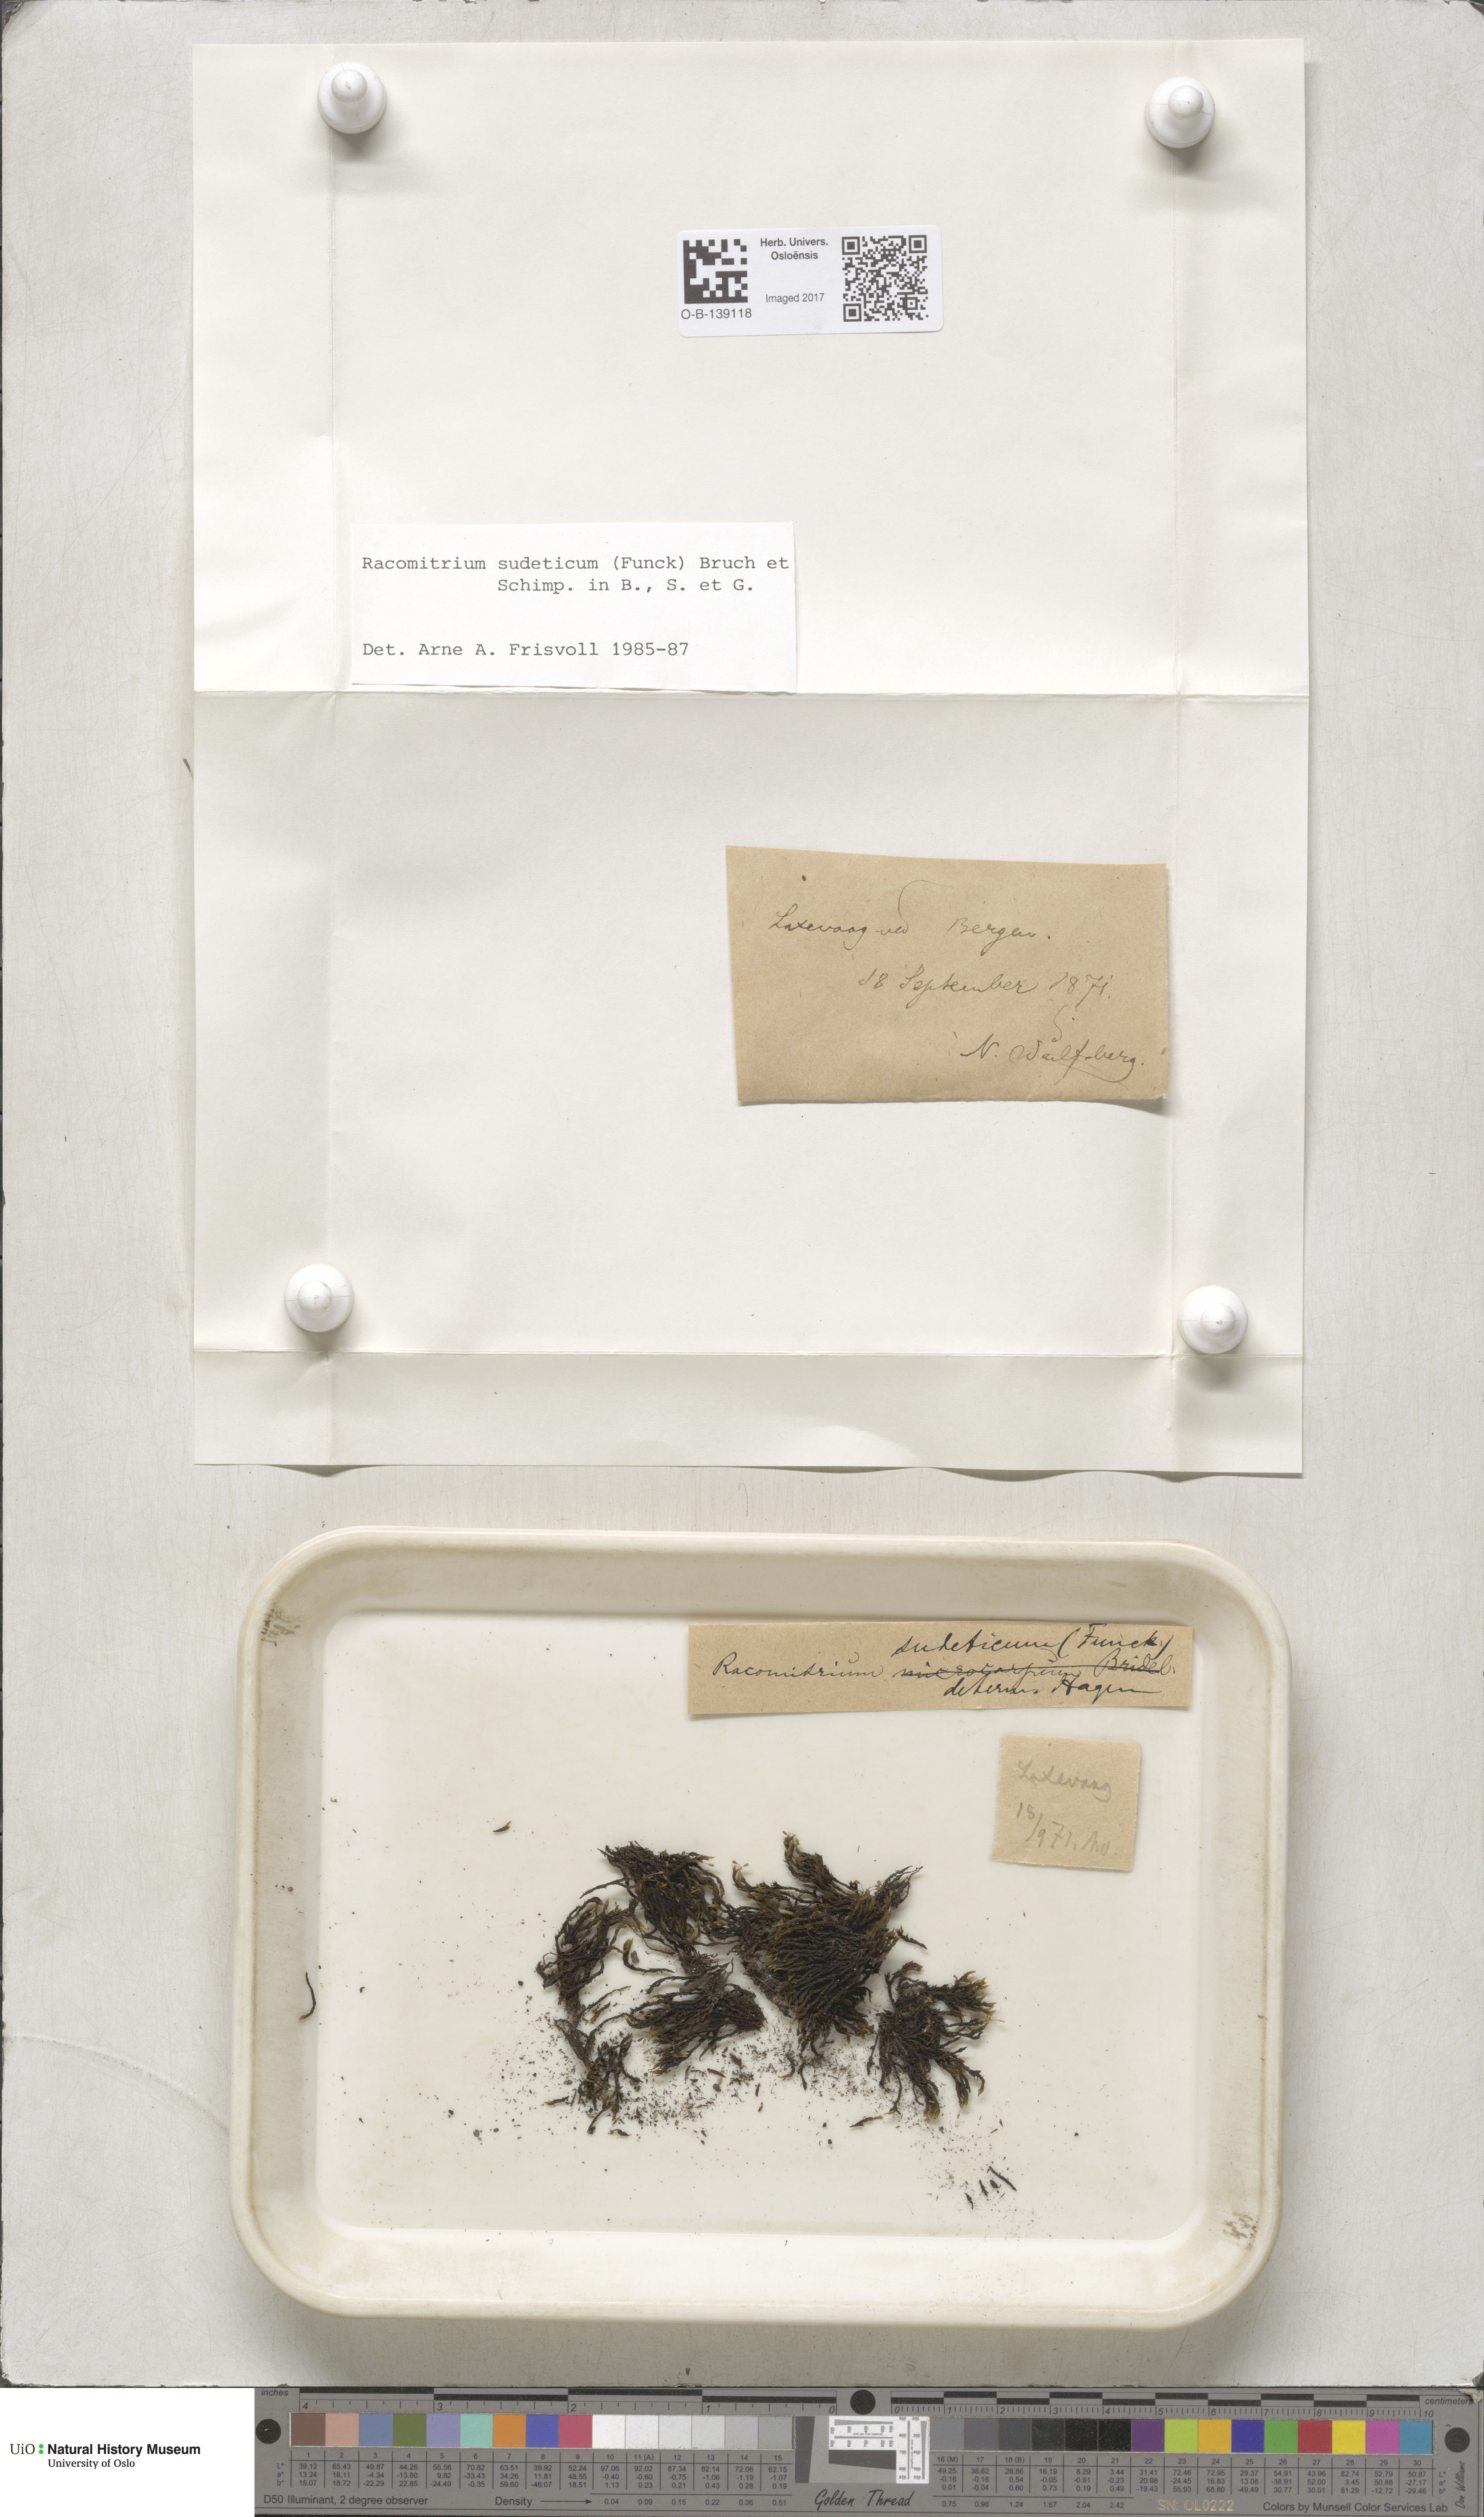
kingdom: Plantae
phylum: Bryophyta
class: Bryopsida
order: Grimmiales
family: Grimmiaceae
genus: Bucklandiella
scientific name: Bucklandiella sudetica
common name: Slender fringe-moss
